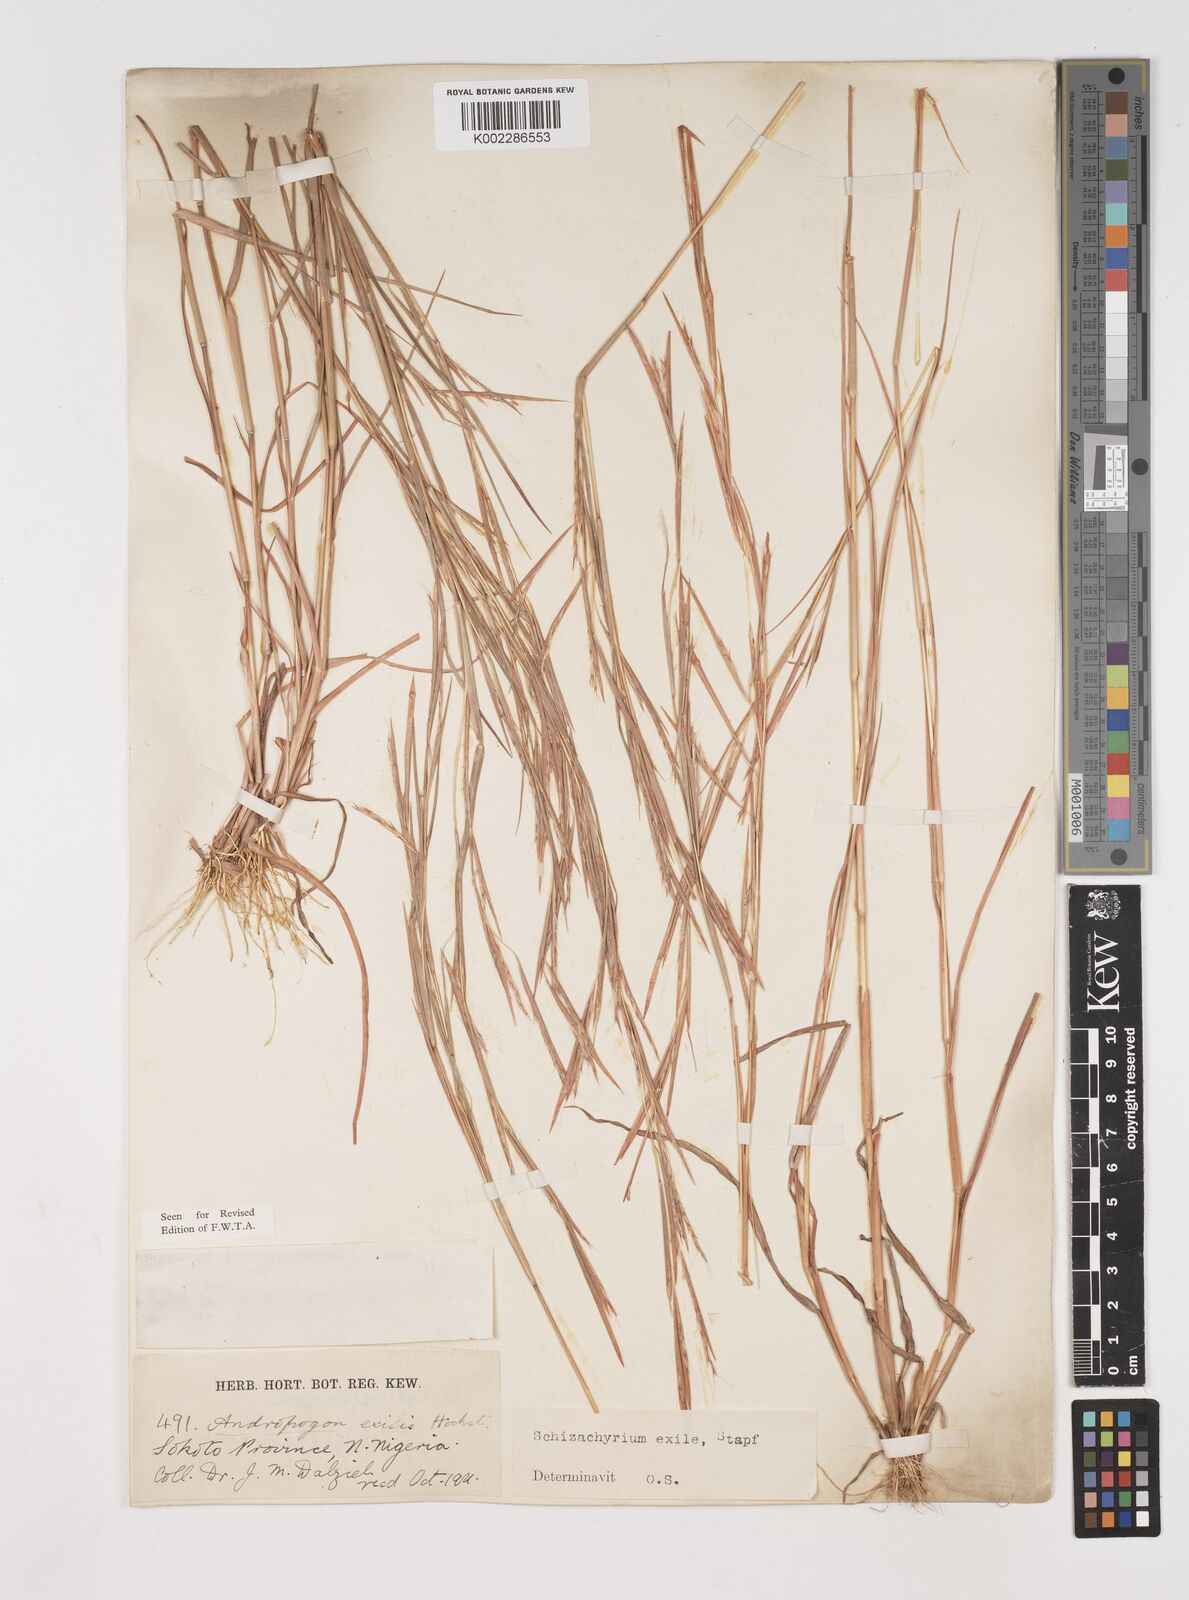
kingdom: Plantae
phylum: Tracheophyta
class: Liliopsida
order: Poales
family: Poaceae
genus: Schizachyrium
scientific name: Schizachyrium exile
